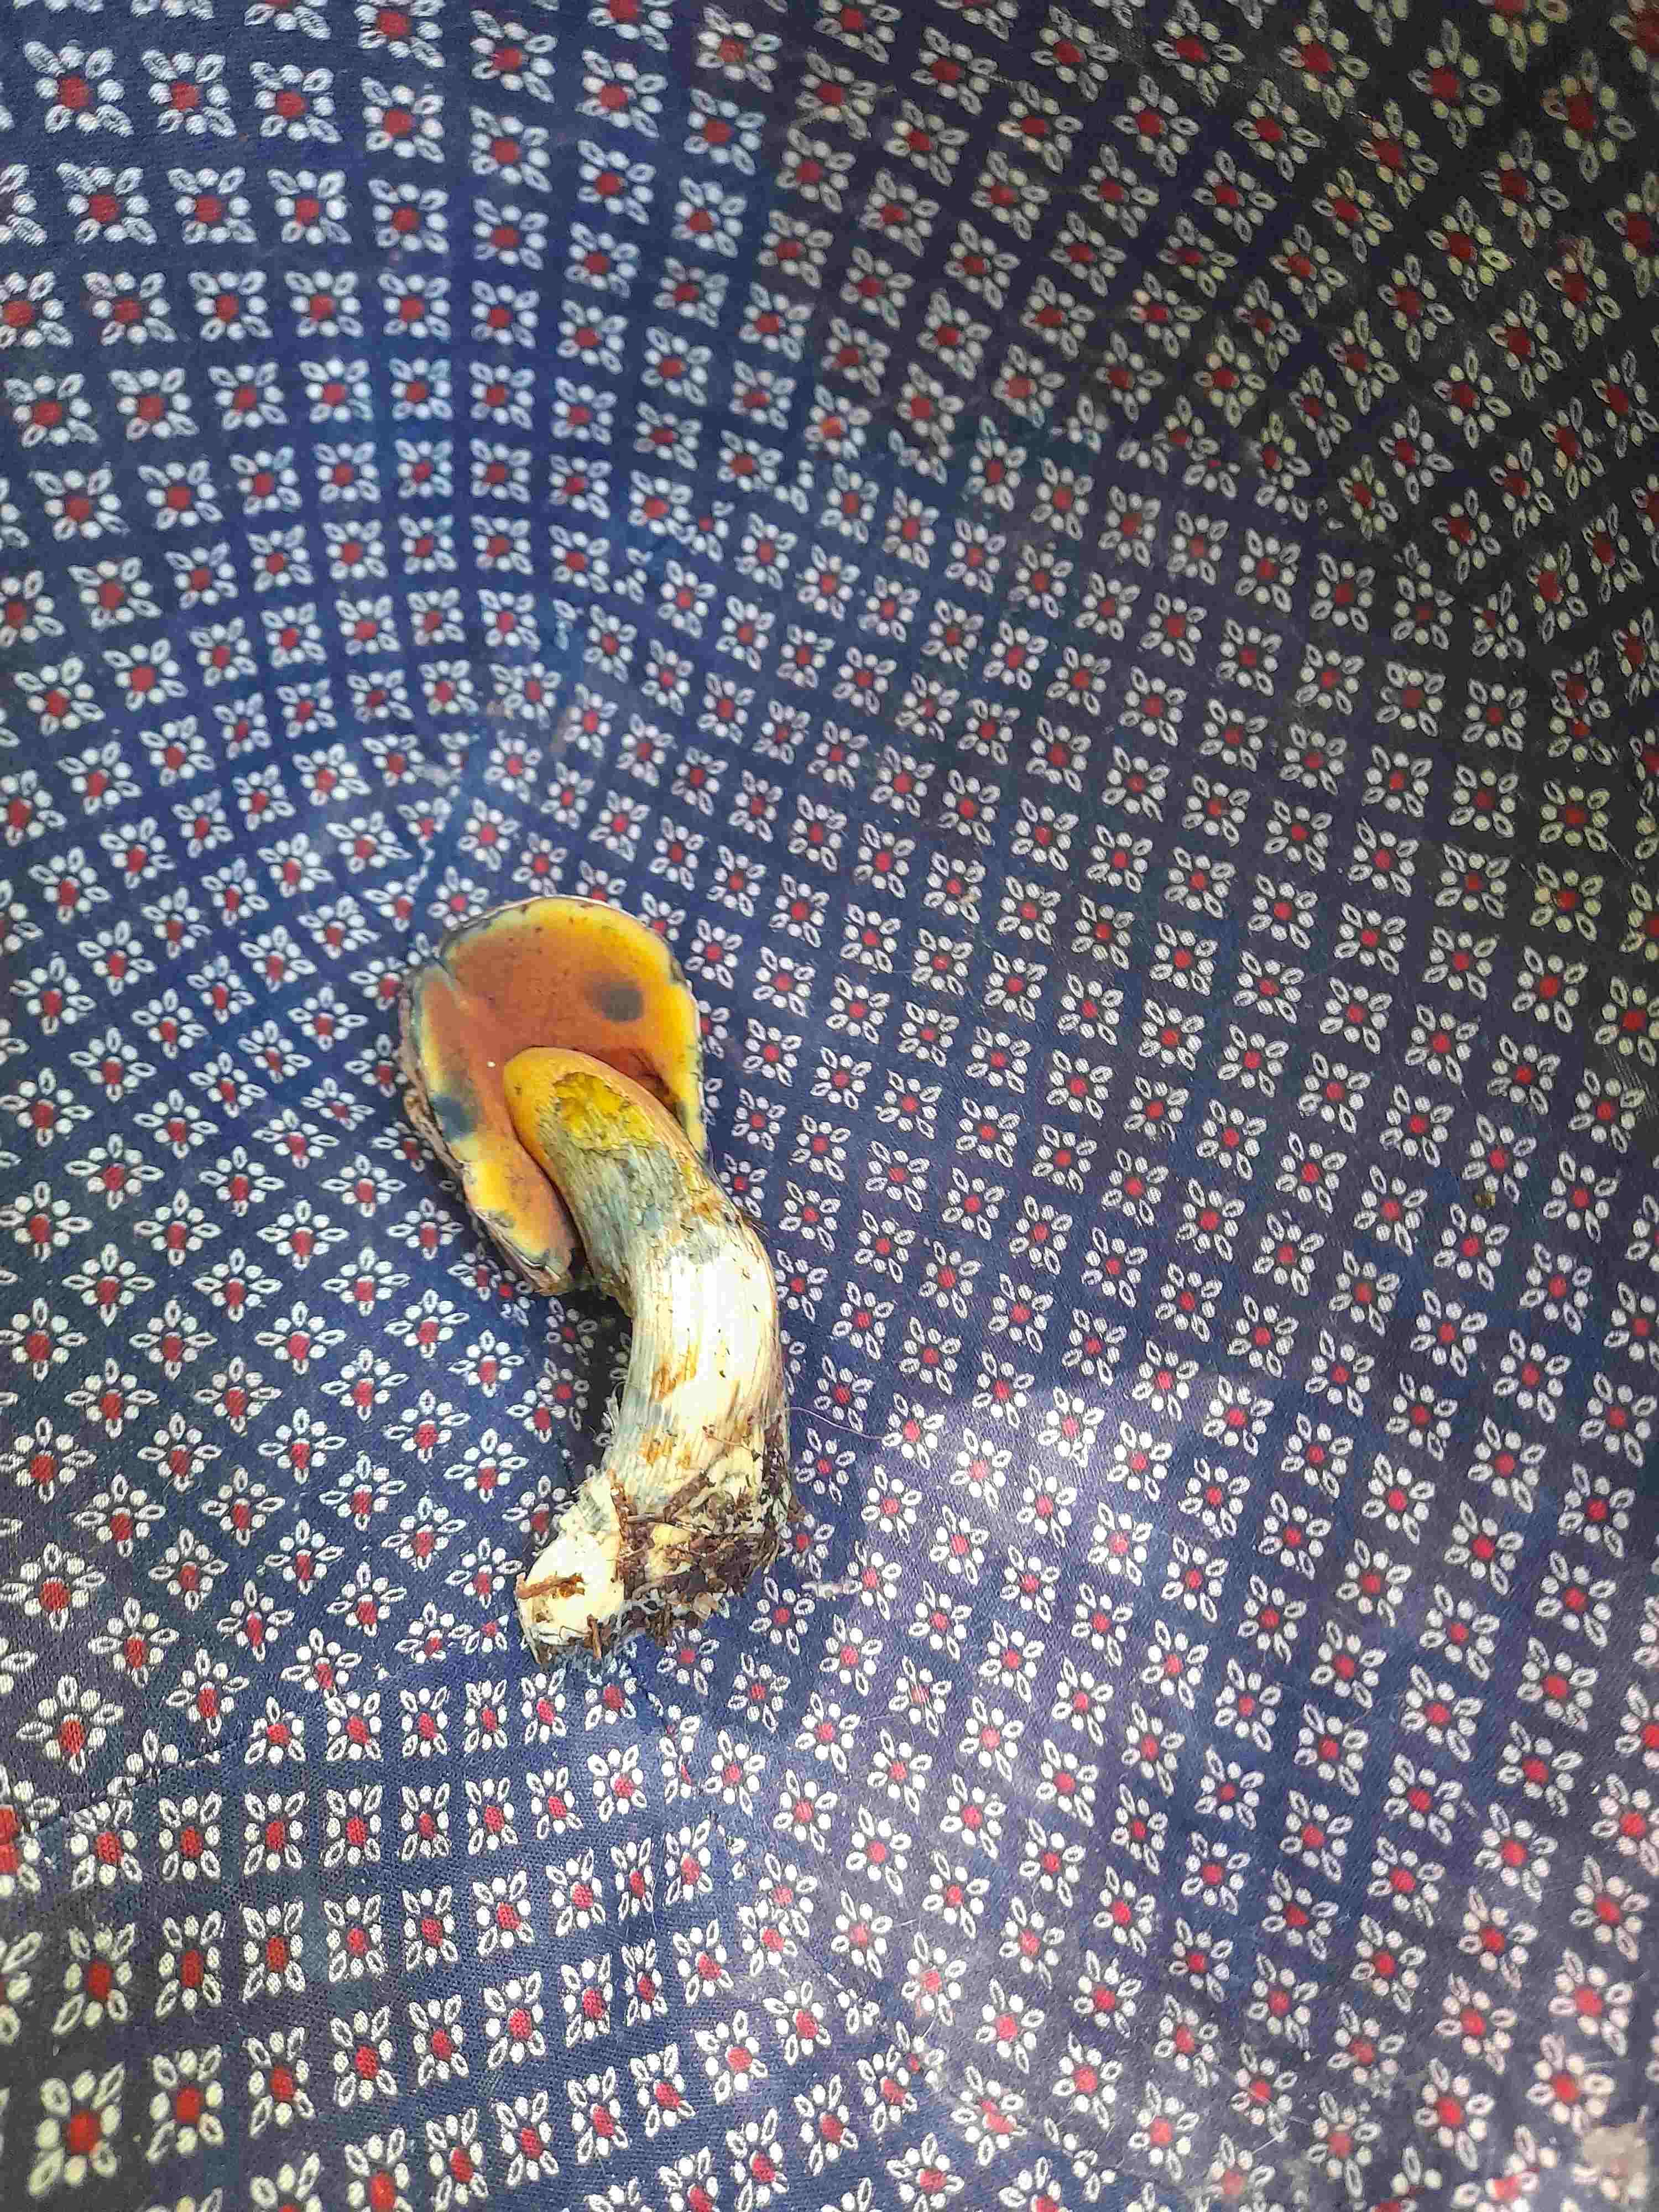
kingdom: Fungi
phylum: Basidiomycota
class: Agaricomycetes
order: Boletales
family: Boletaceae
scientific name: Boletaceae
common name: rørhatfamilien
